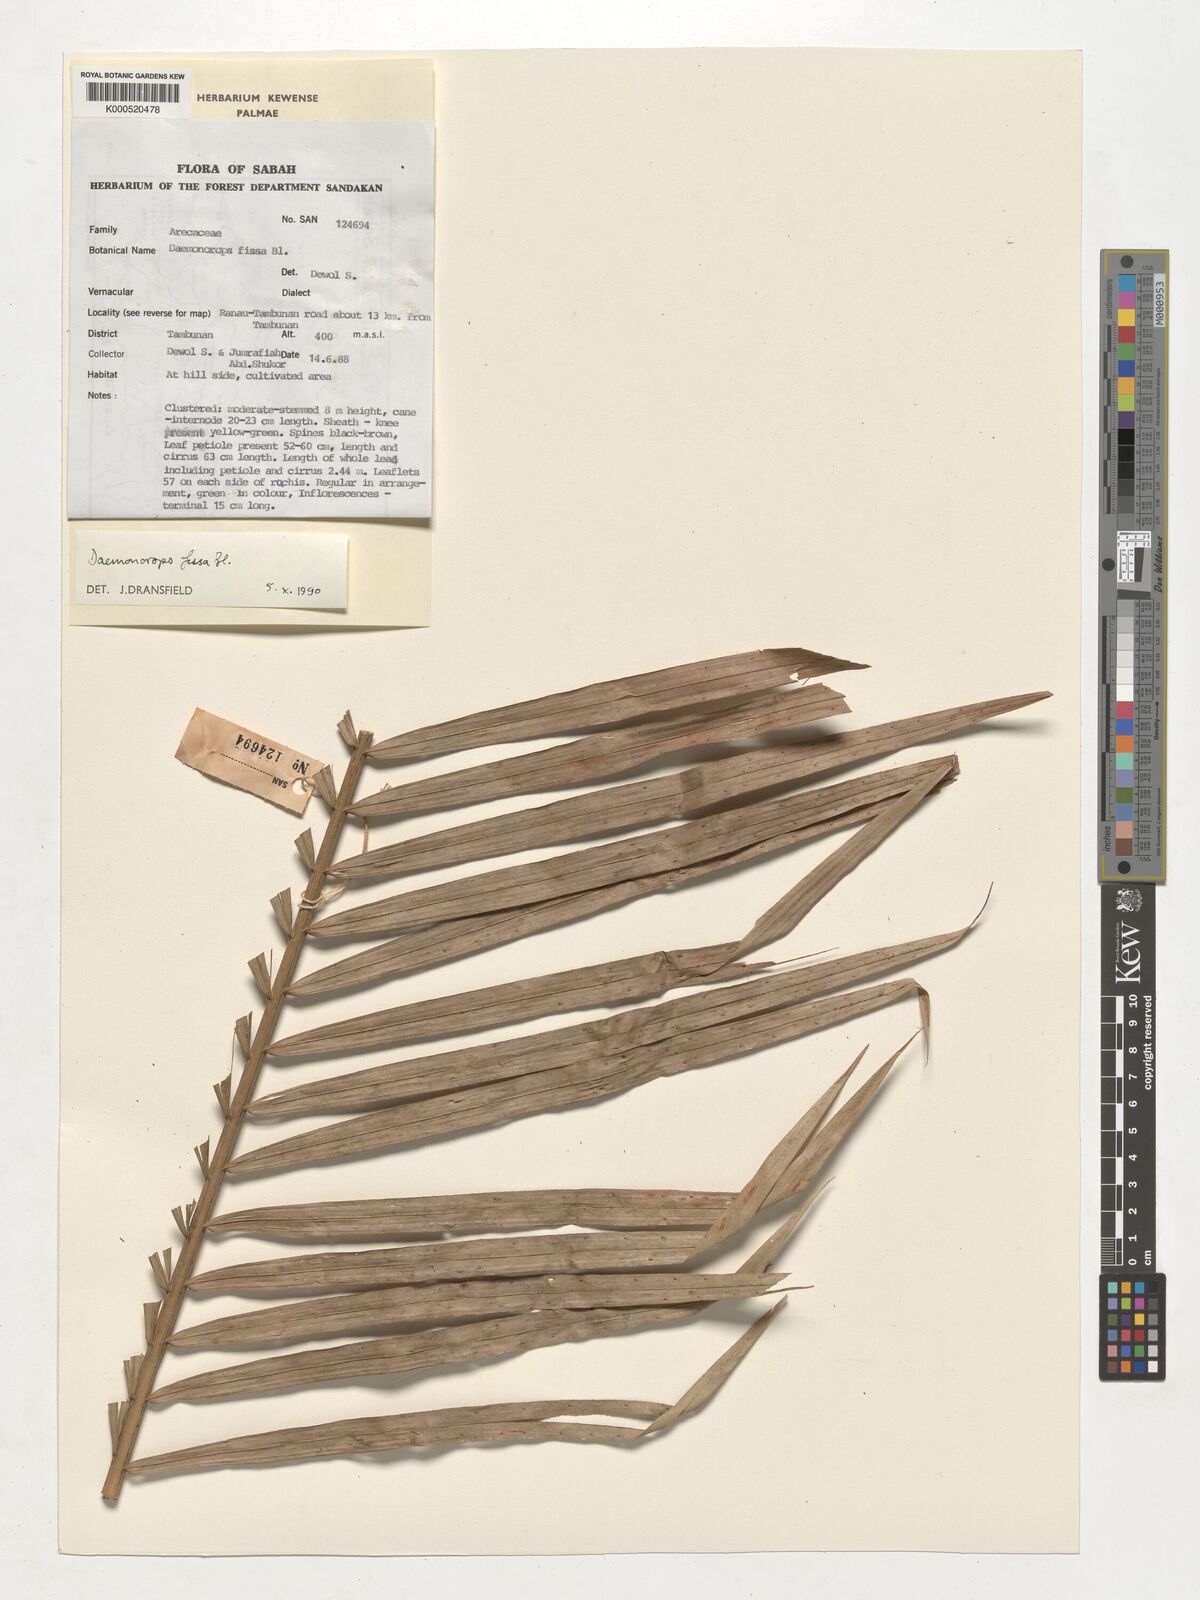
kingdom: Plantae
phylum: Tracheophyta
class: Liliopsida
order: Arecales
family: Arecaceae
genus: Calamus
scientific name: Calamus melanochaetes
